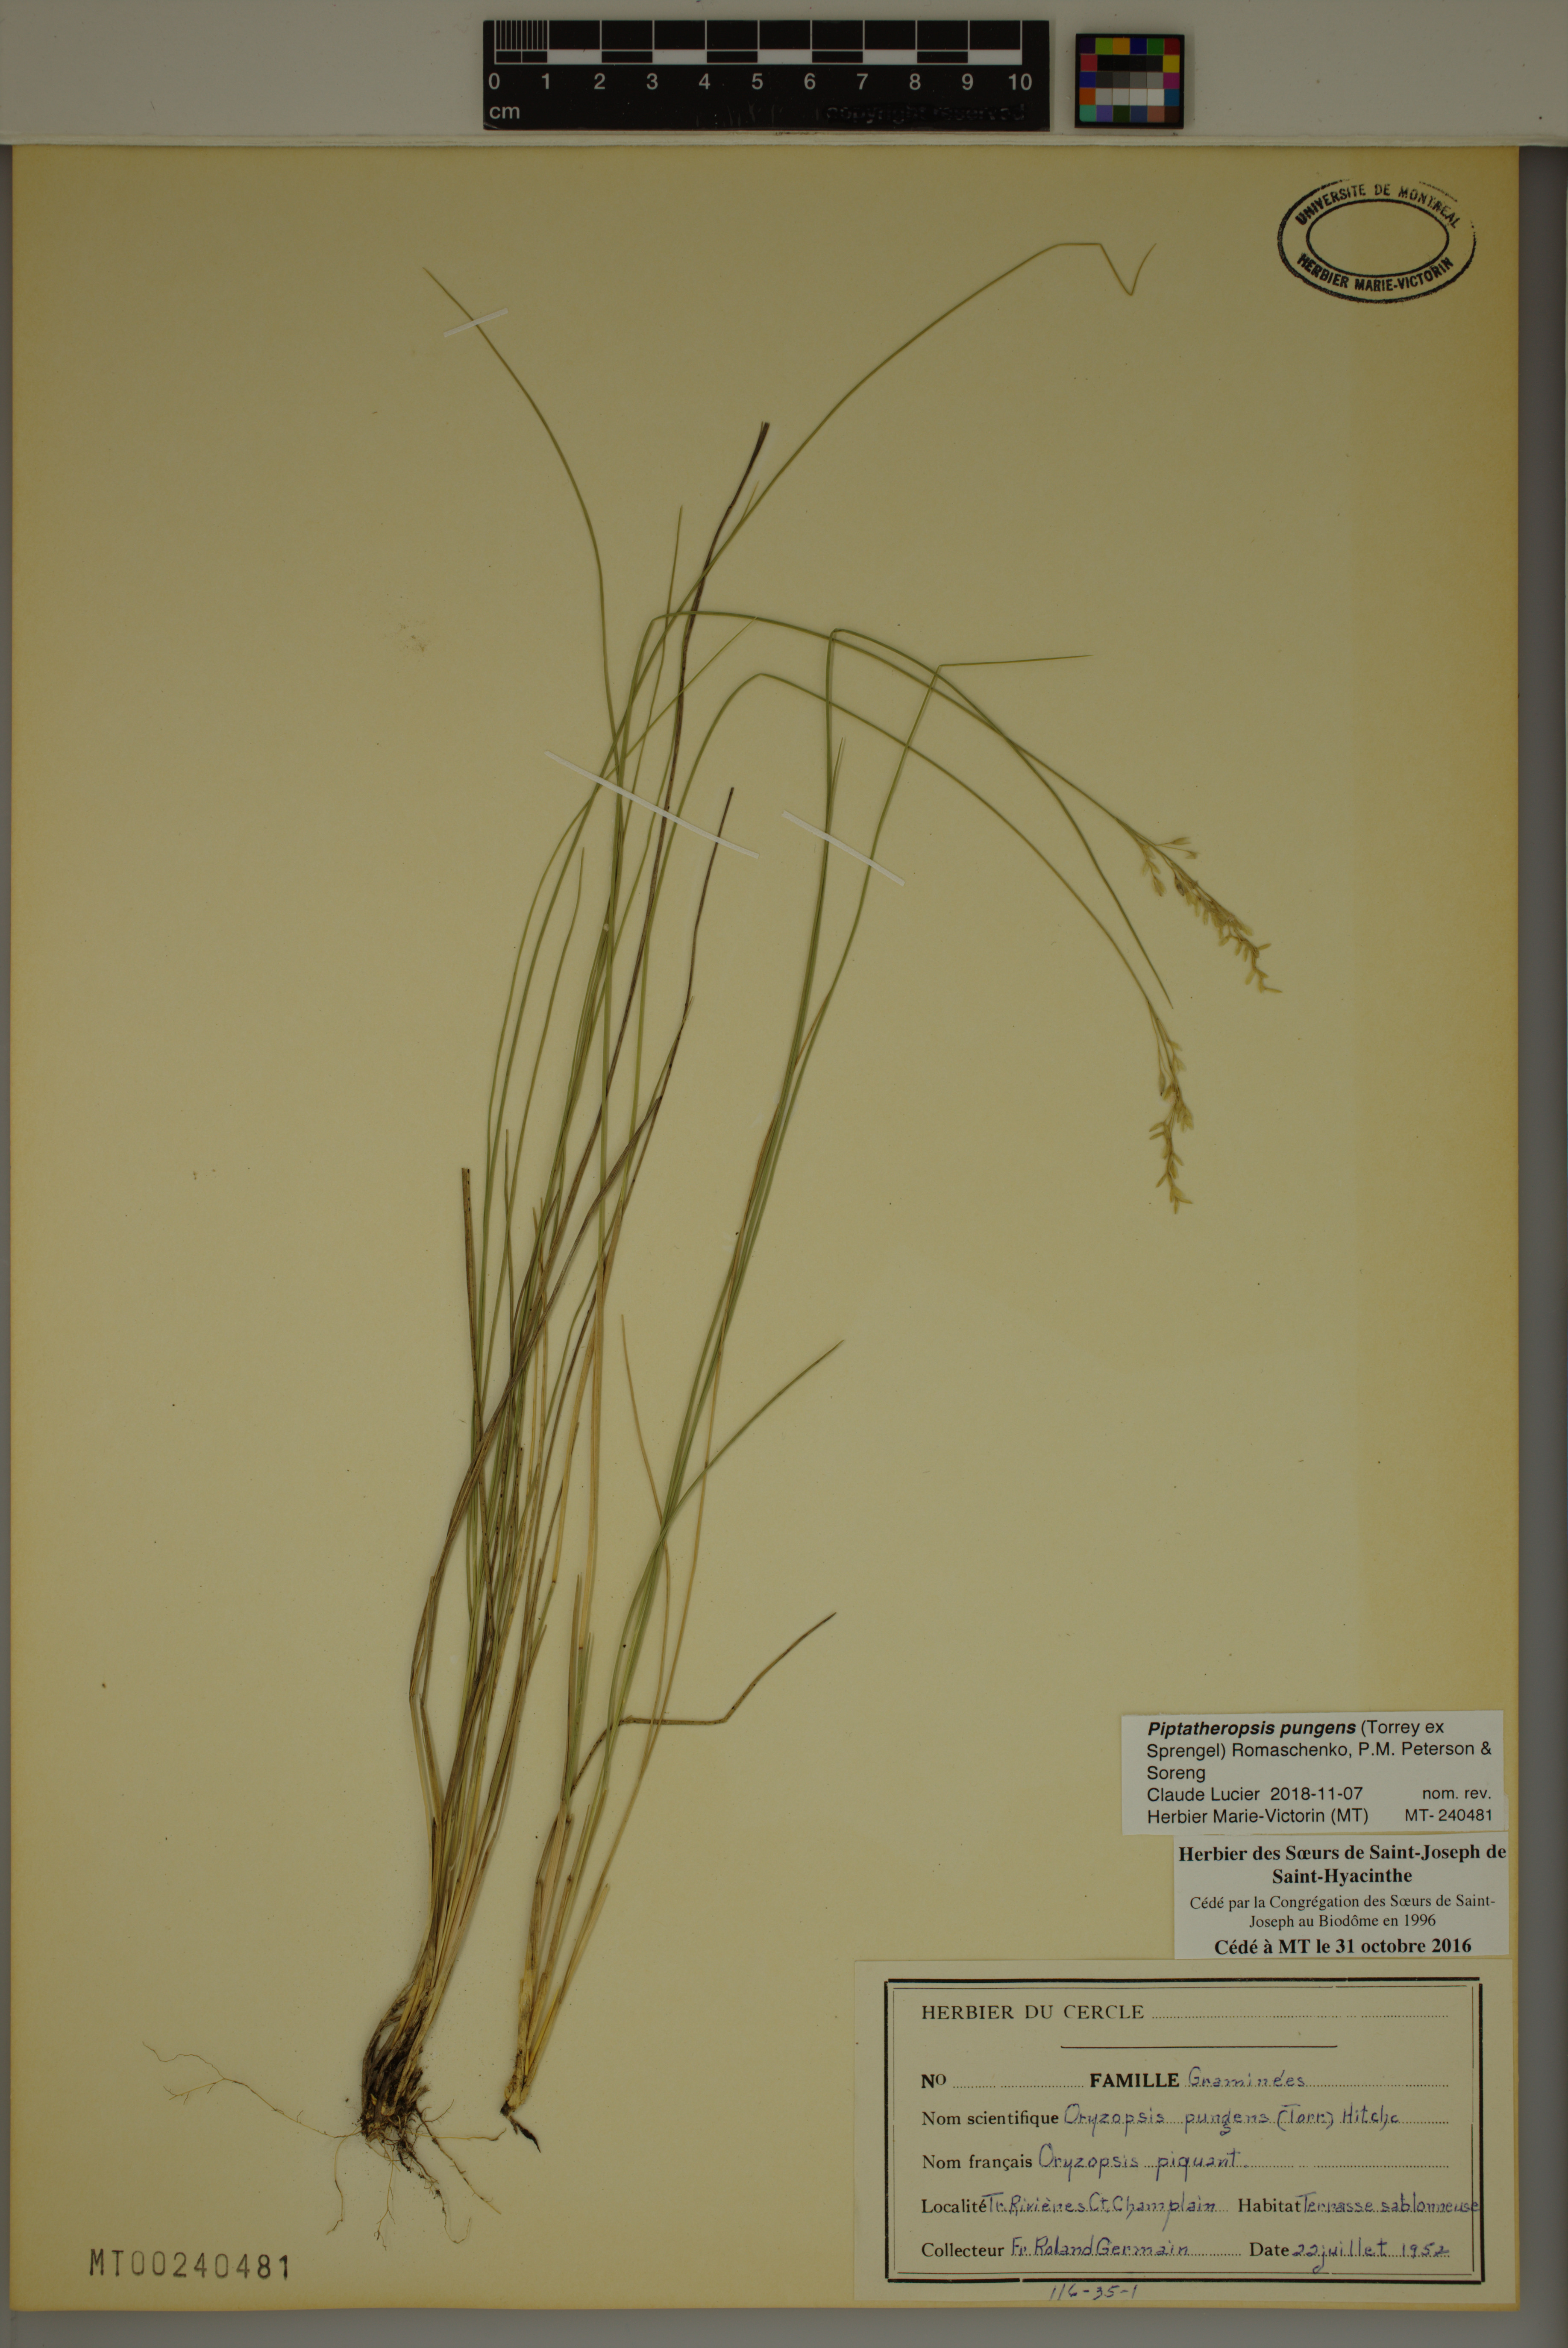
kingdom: Plantae
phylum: Tracheophyta
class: Liliopsida
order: Poales
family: Poaceae
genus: Piptatheropsis
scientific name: Piptatheropsis pungens
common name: Northern ricegrass
